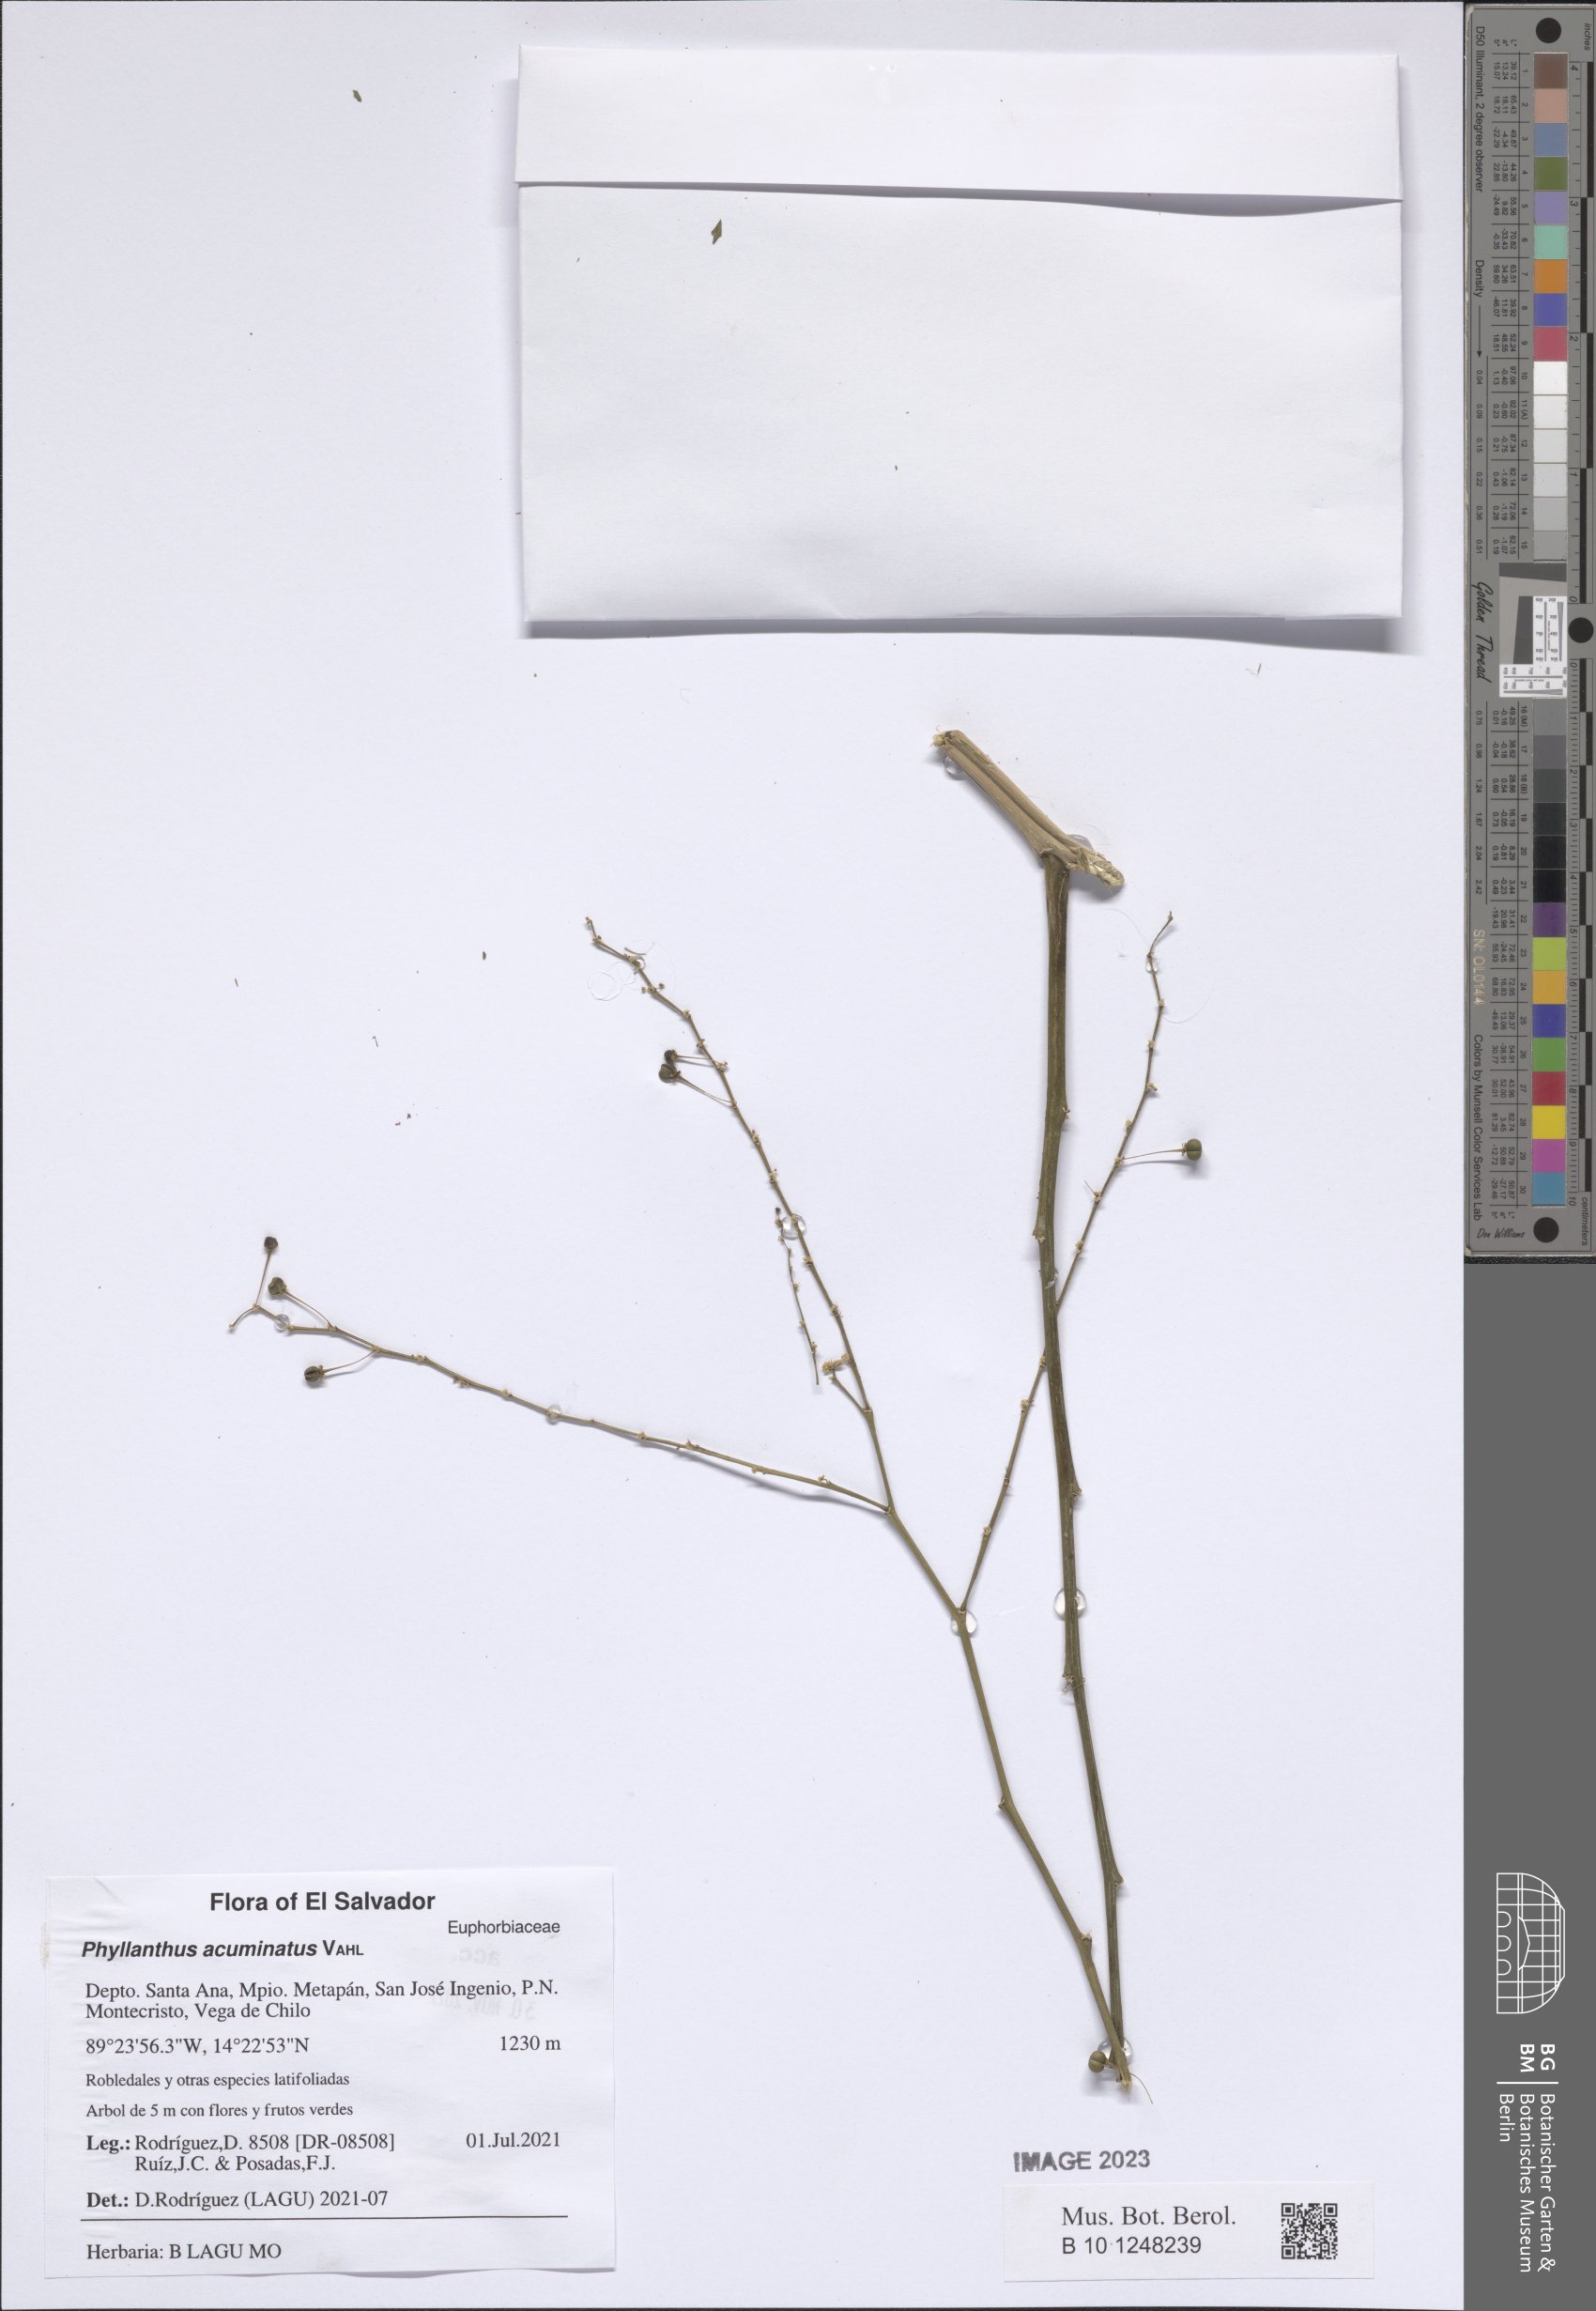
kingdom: Plantae
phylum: Tracheophyta
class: Magnoliopsida
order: Malpighiales
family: Phyllanthaceae
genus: Phyllanthus
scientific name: Phyllanthus acuminatus
